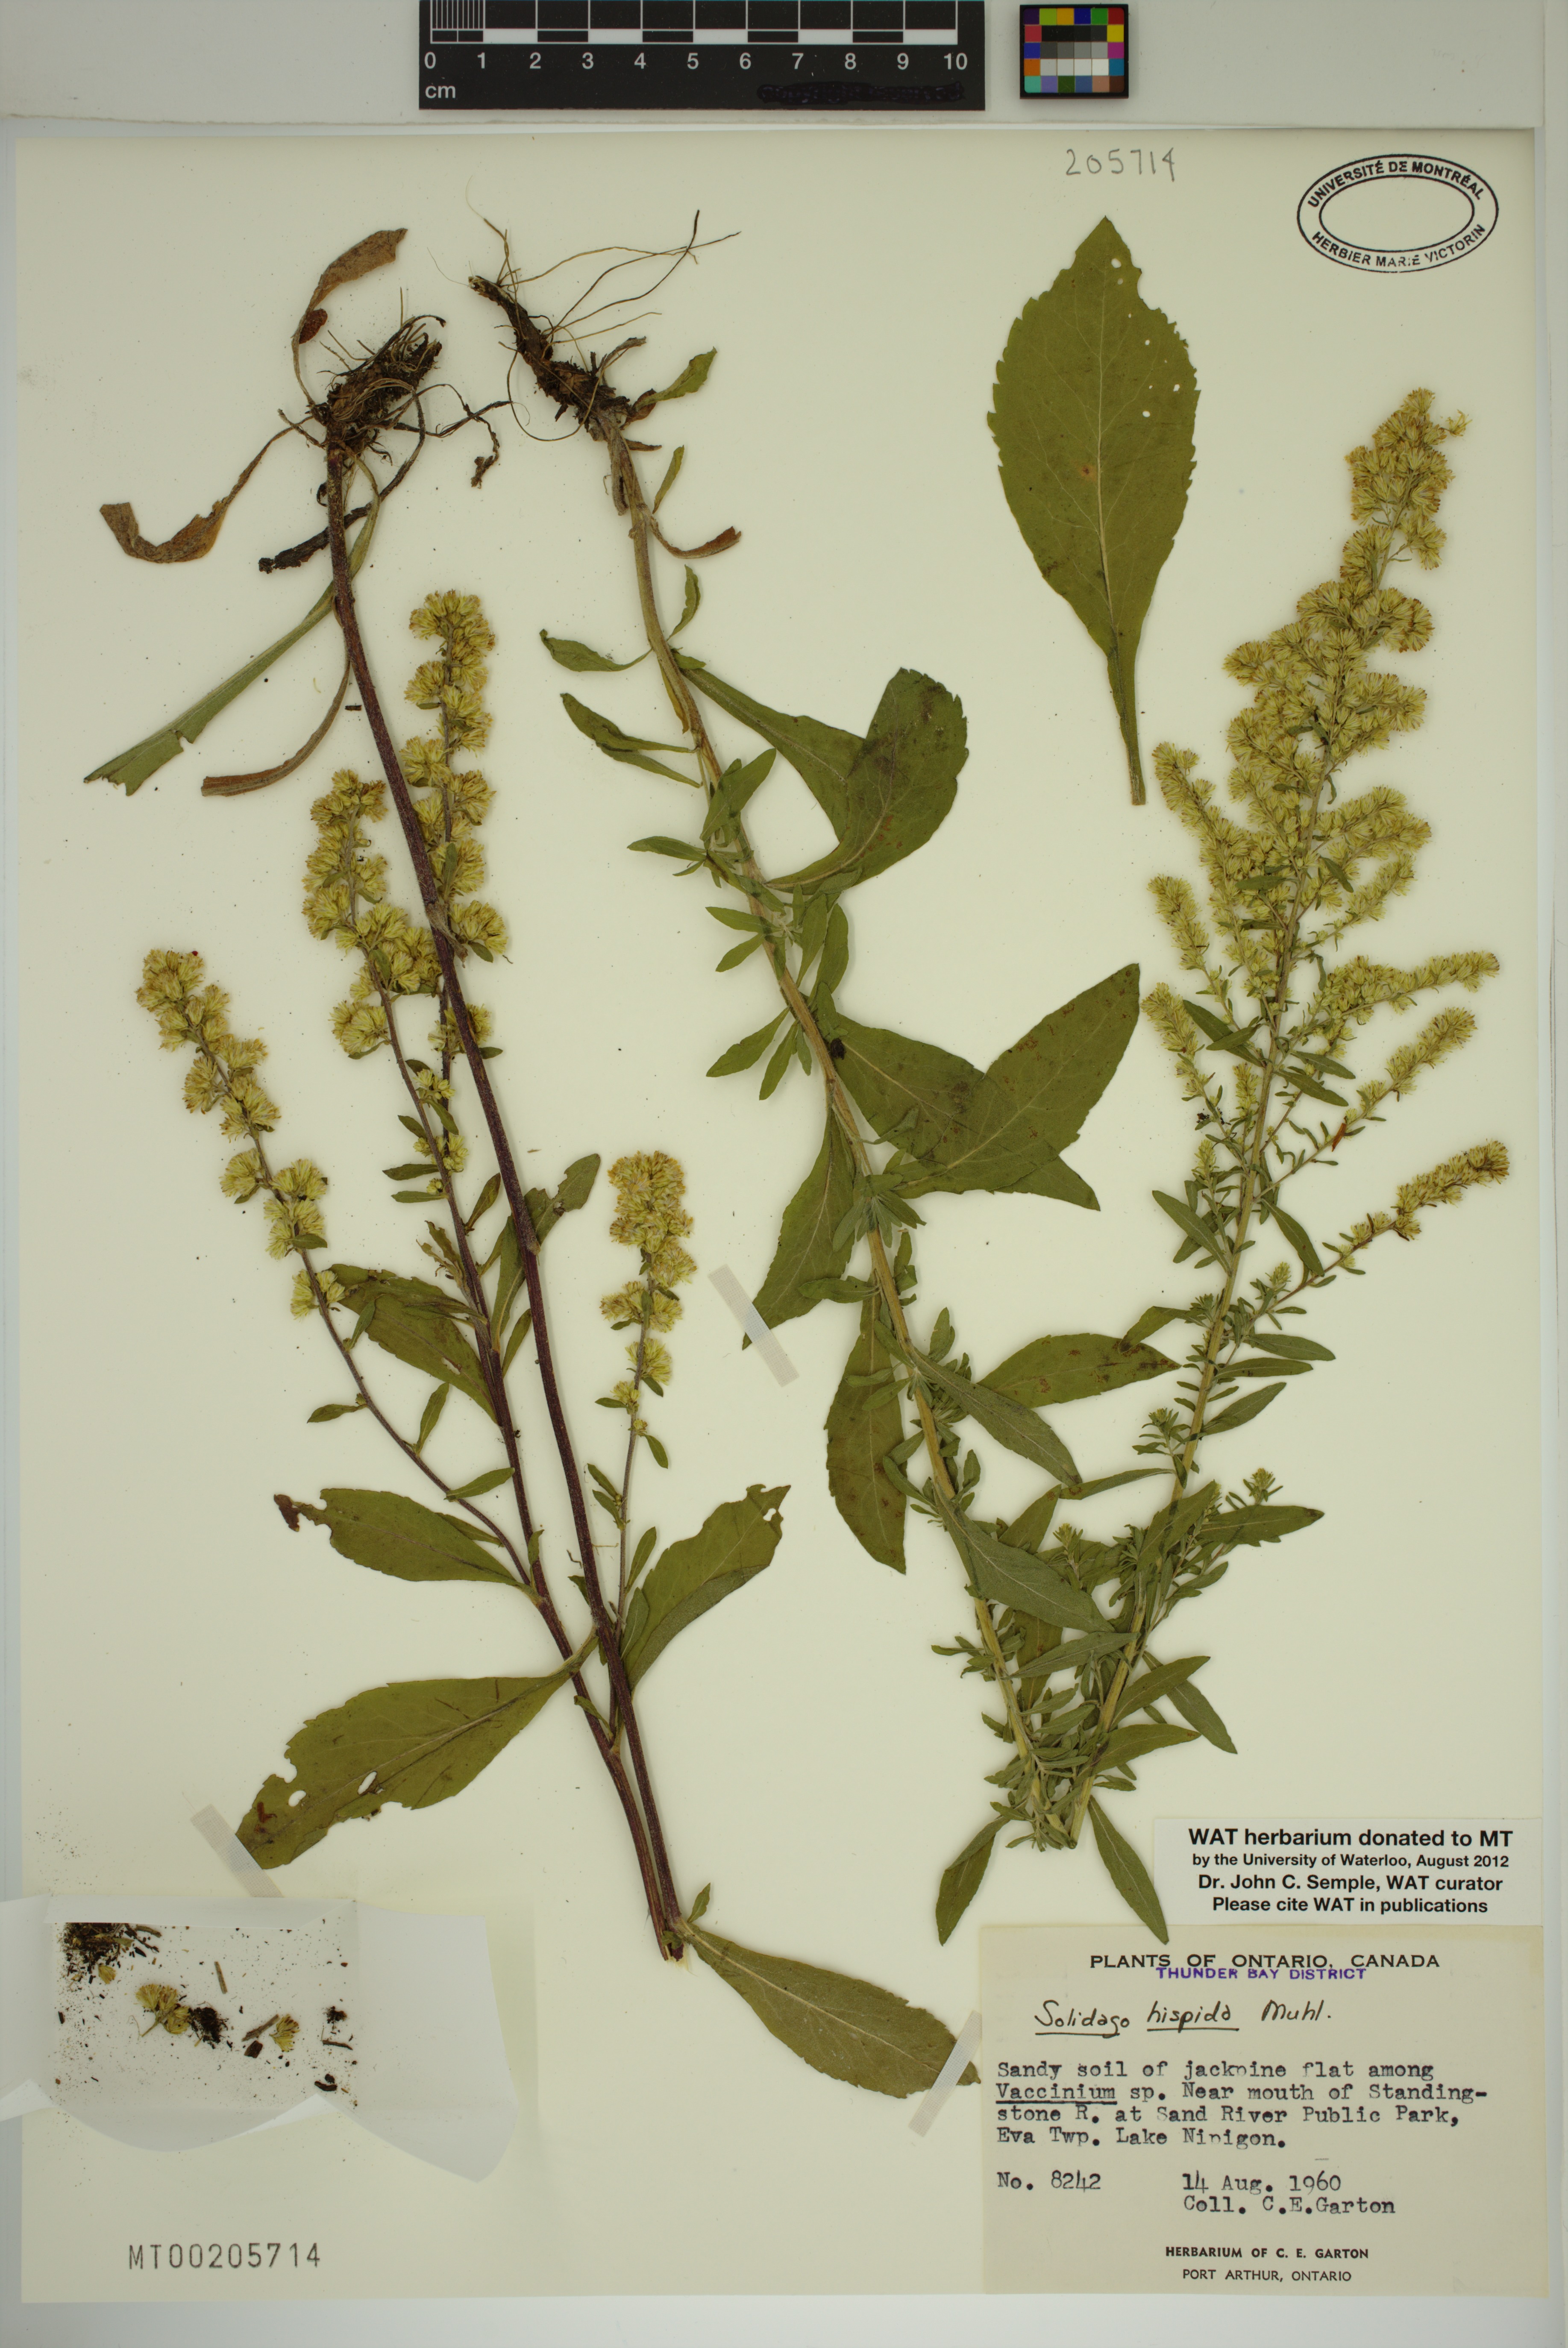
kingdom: Plantae
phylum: Tracheophyta
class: Magnoliopsida
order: Asterales
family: Asteraceae
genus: Solidago
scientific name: Solidago hispida
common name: Hairy goldenrod
